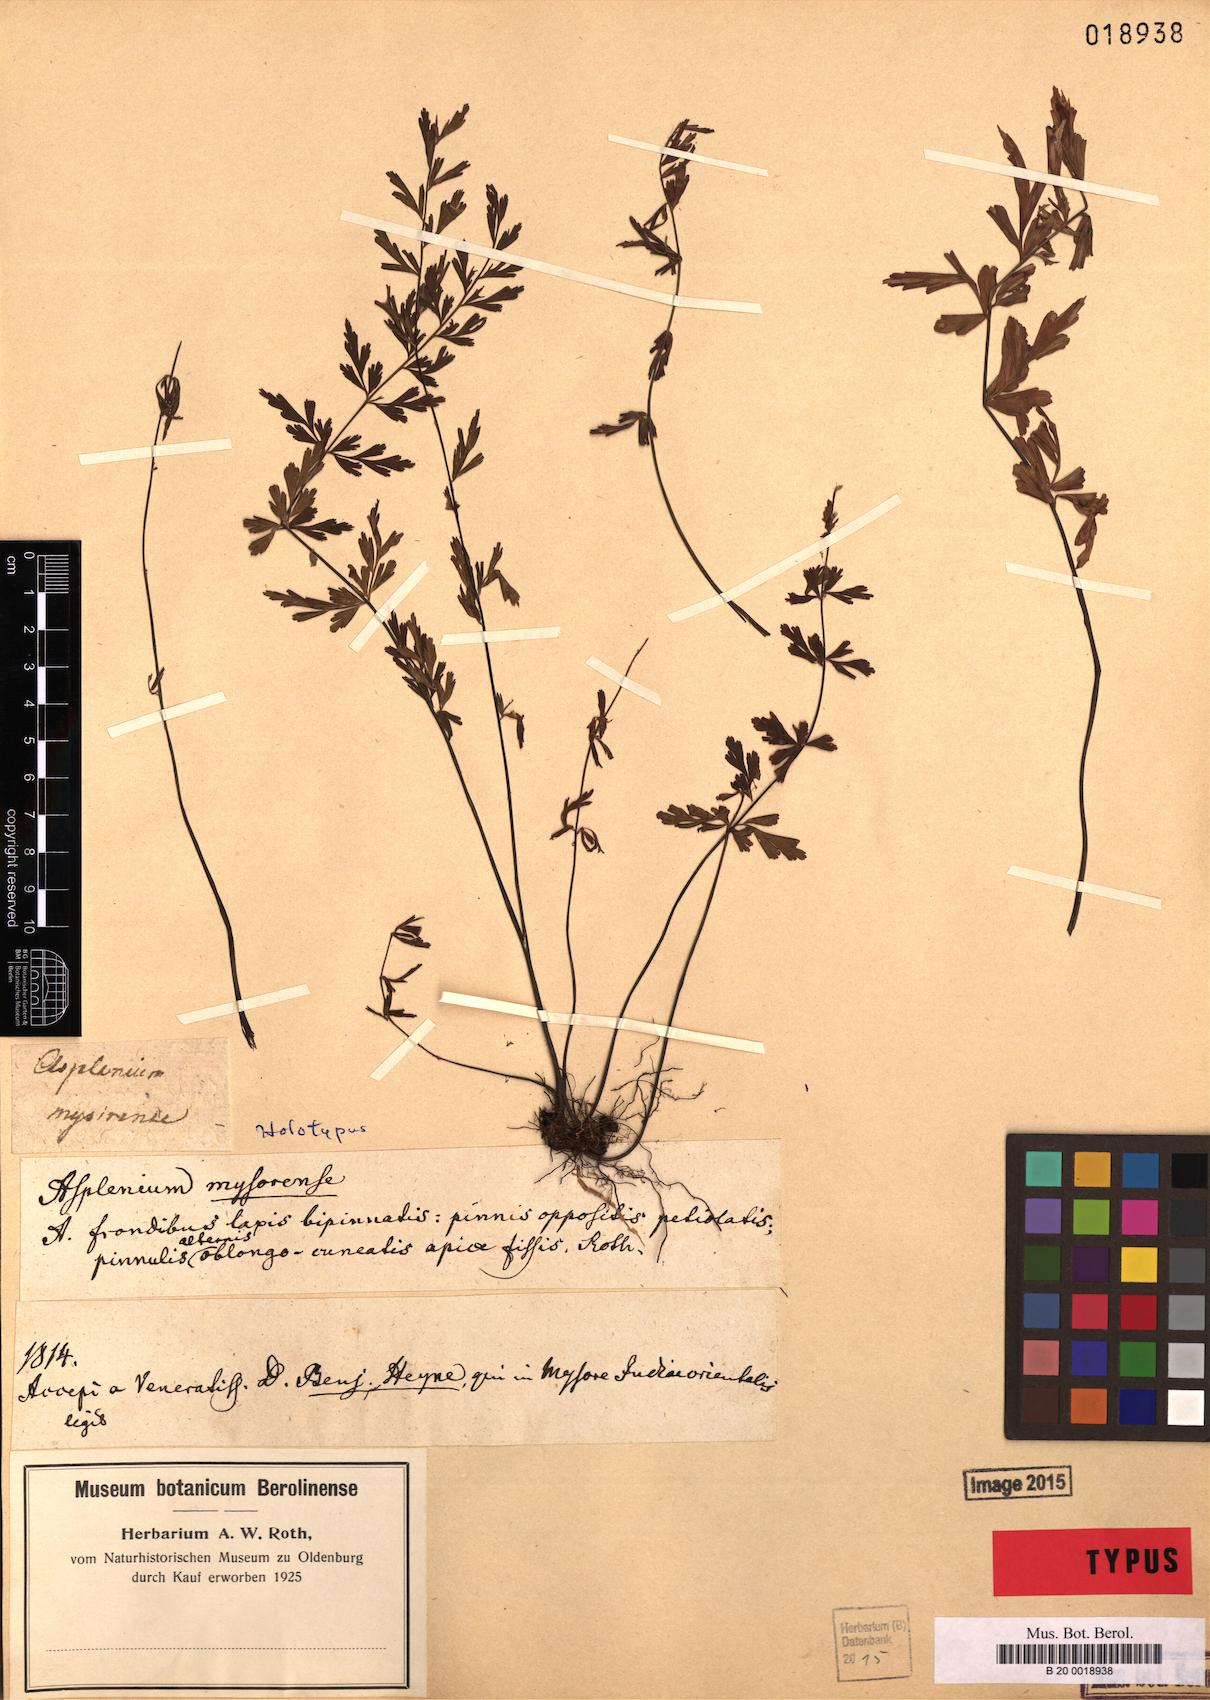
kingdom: Plantae
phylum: Tracheophyta
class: Polypodiopsida
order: Polypodiales
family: Aspleniaceae
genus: Asplenium
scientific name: Asplenium mysorense
